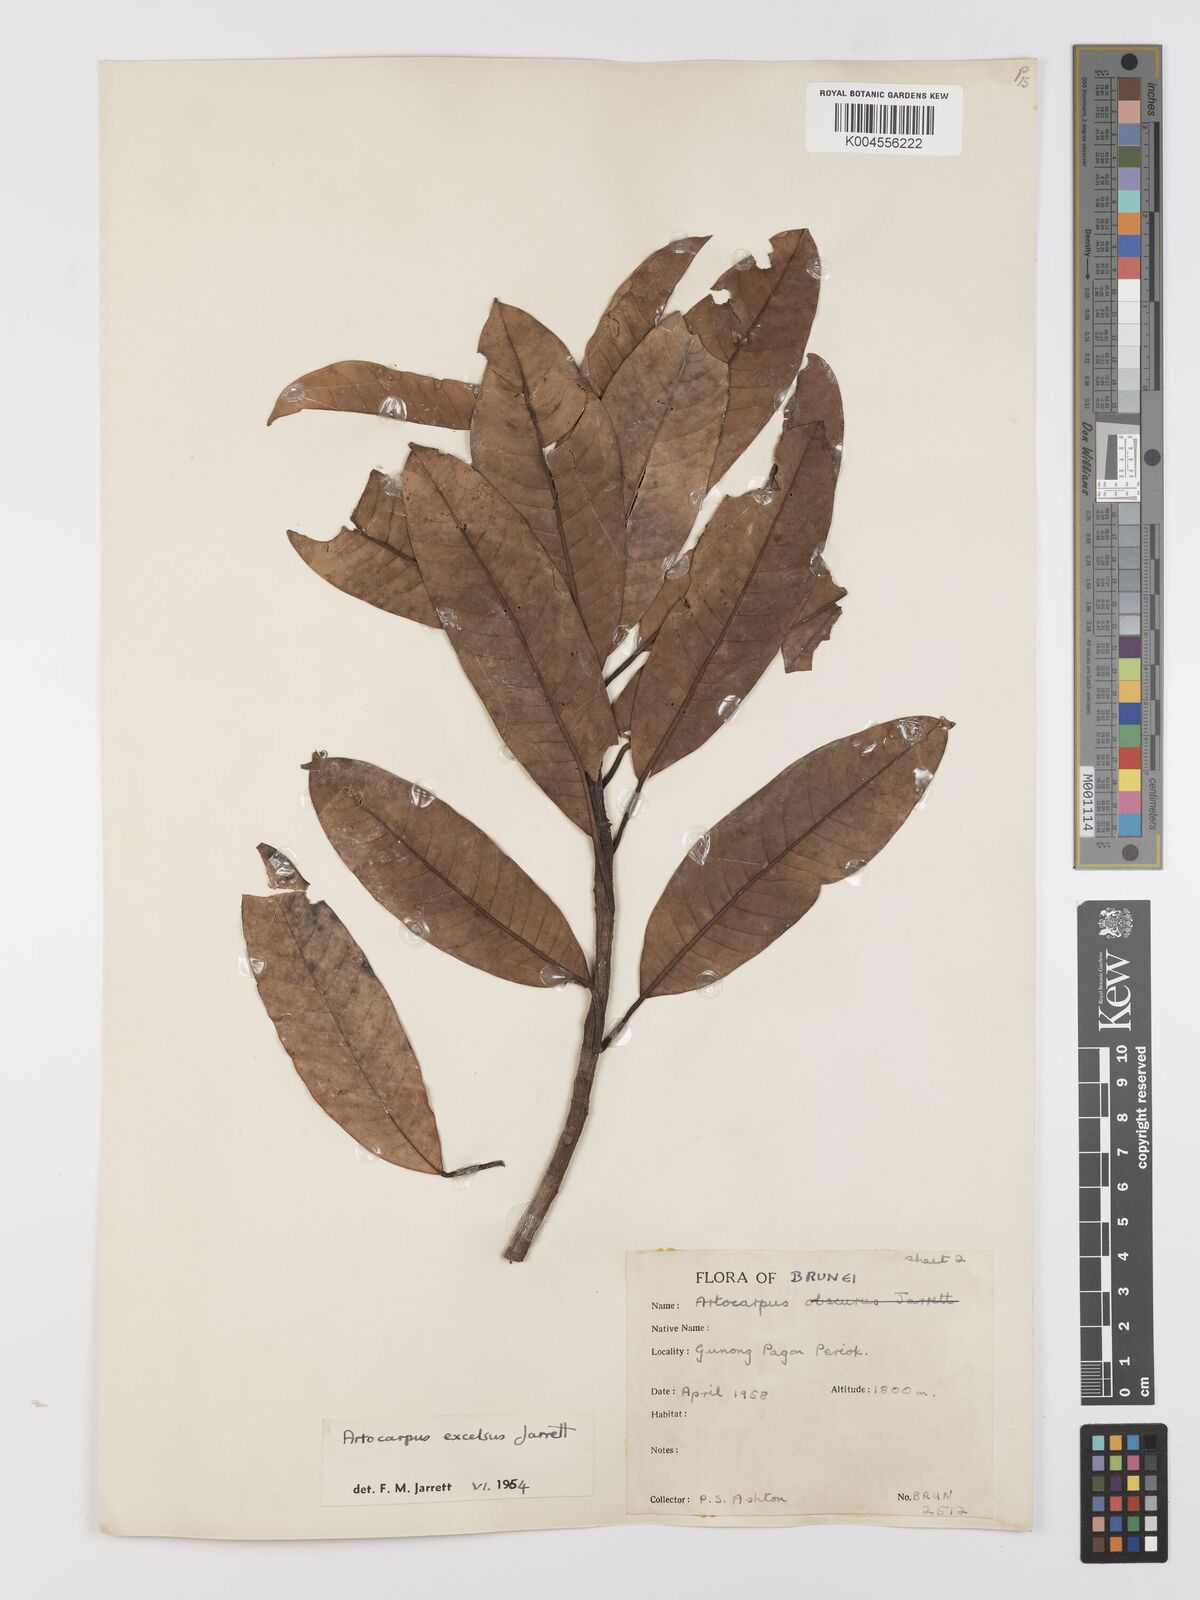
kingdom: Plantae
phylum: Tracheophyta
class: Magnoliopsida
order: Rosales
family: Moraceae
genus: Artocarpus
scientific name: Artocarpus excelsus
